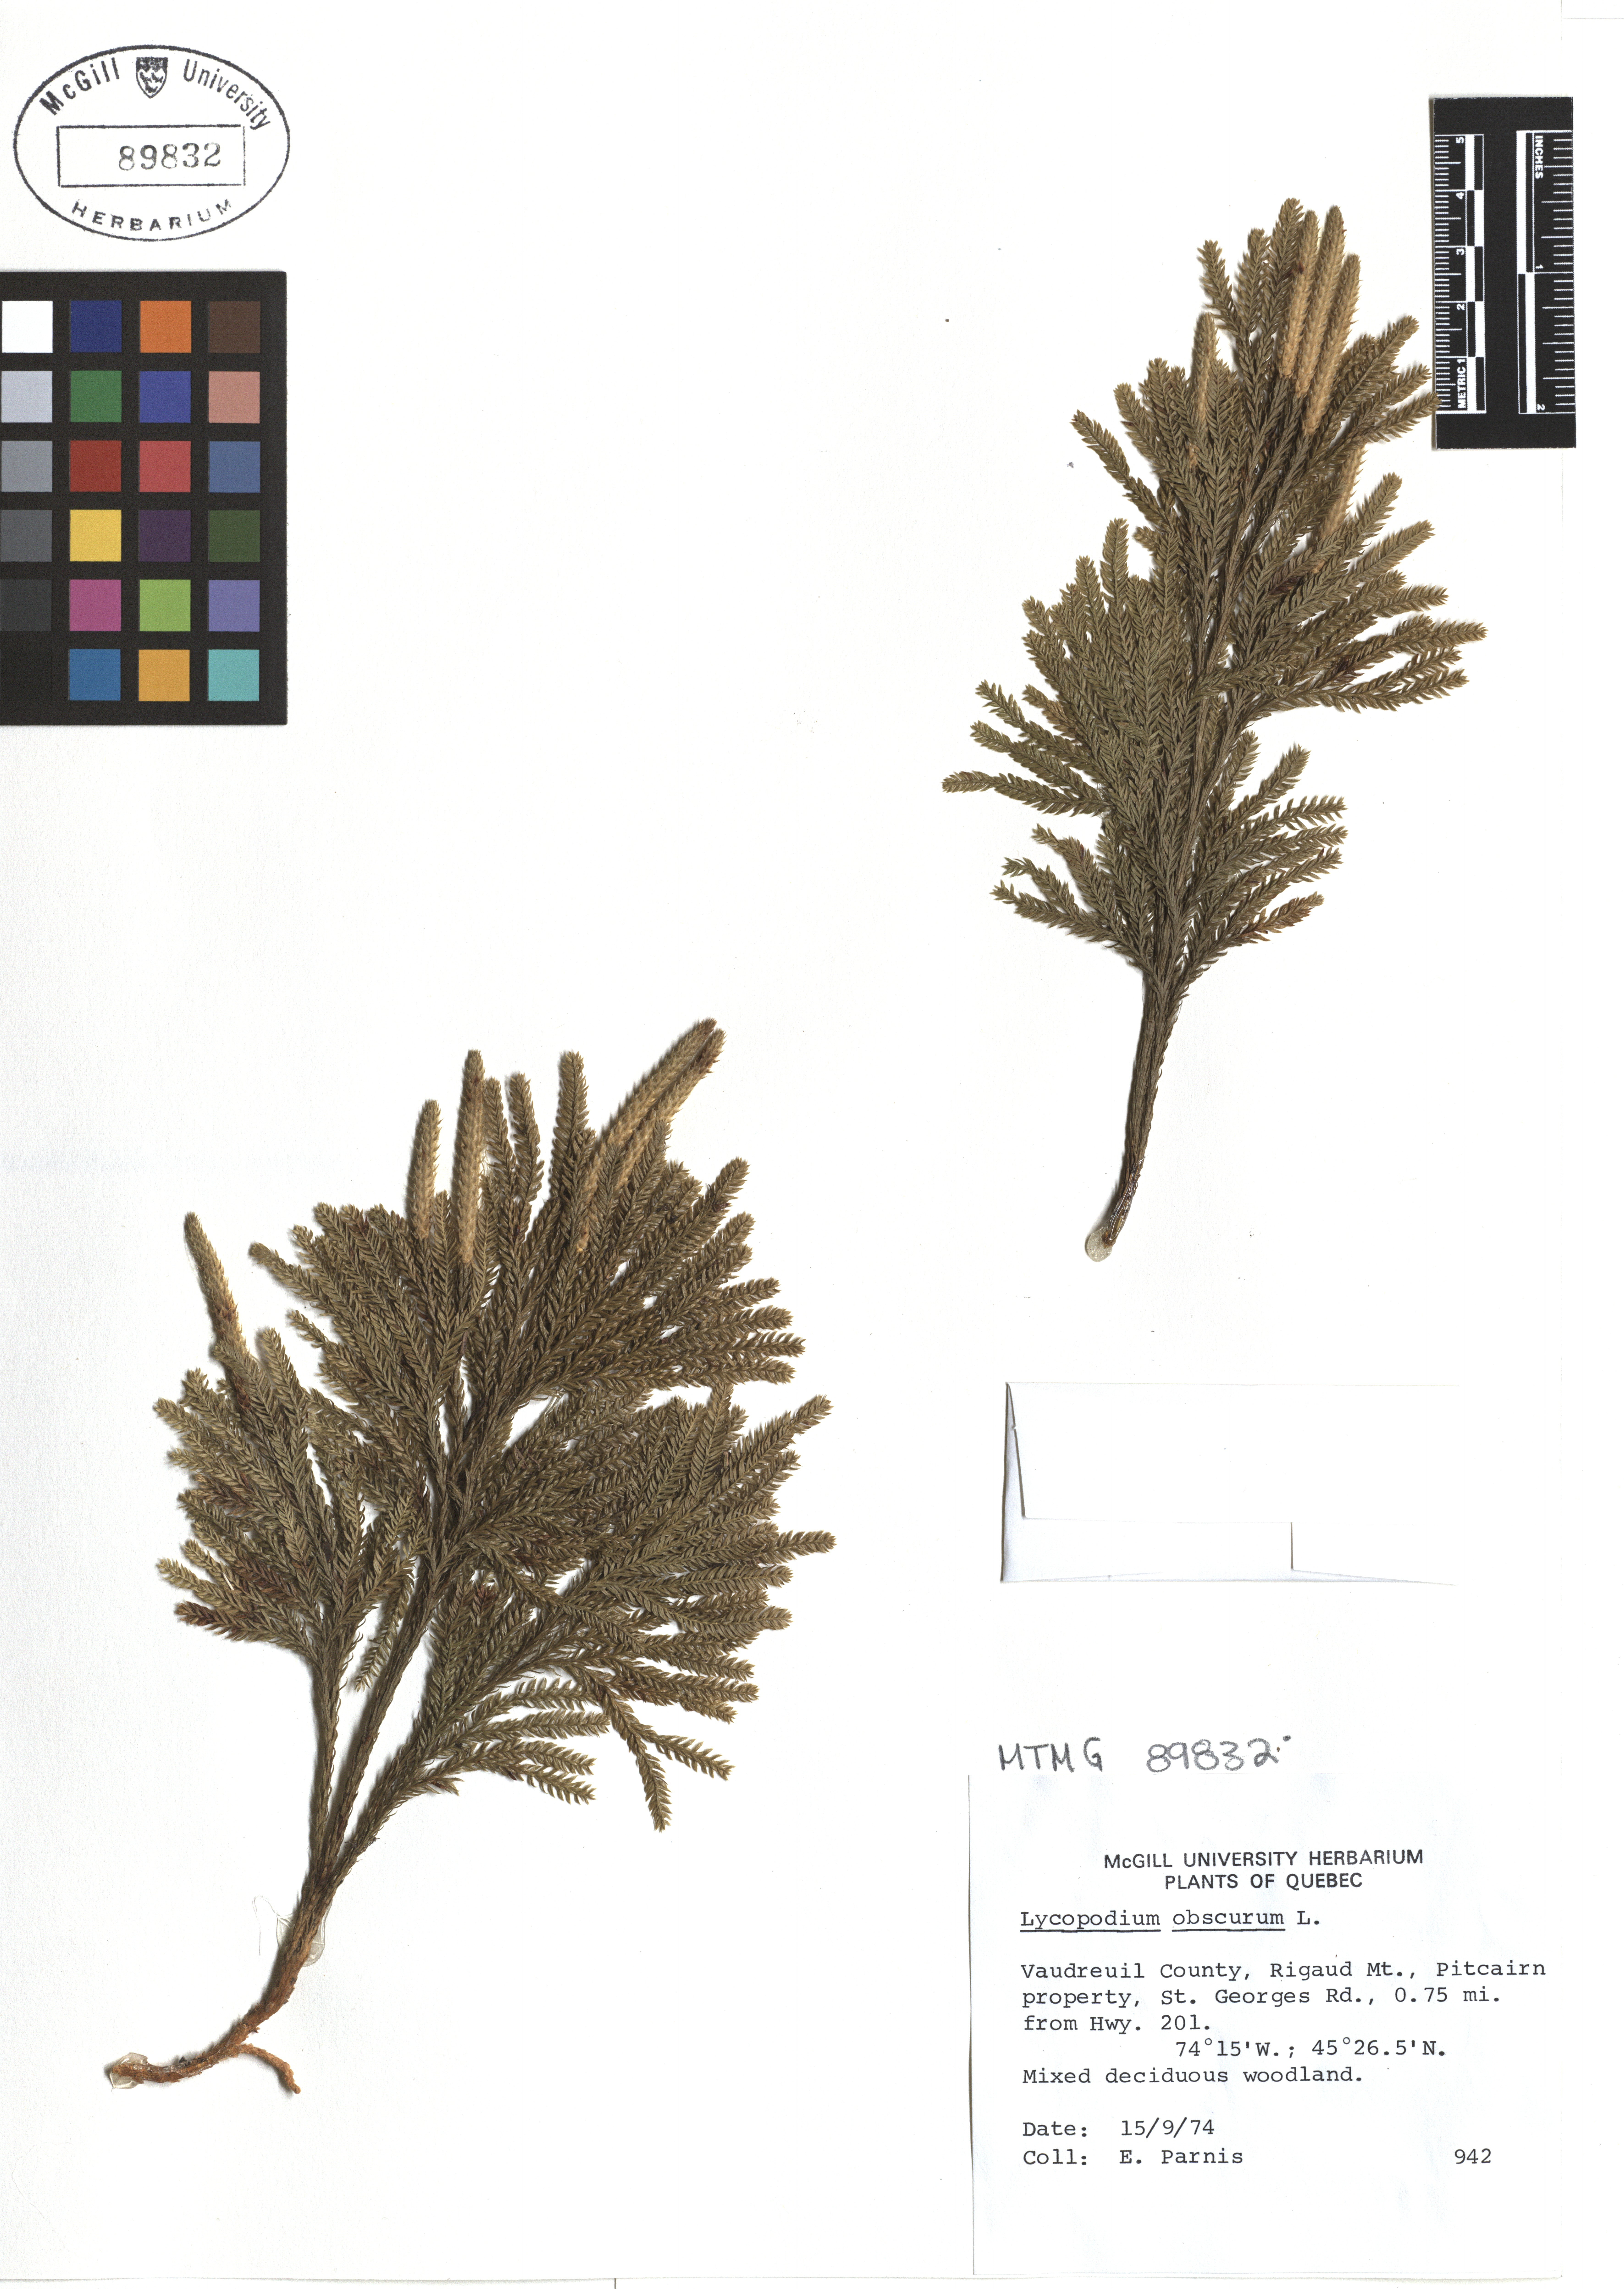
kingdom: Plantae
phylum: Tracheophyta
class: Lycopodiopsida
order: Lycopodiales
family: Lycopodiaceae
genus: Dendrolycopodium
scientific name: Dendrolycopodium obscurum
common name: Common ground-pine
